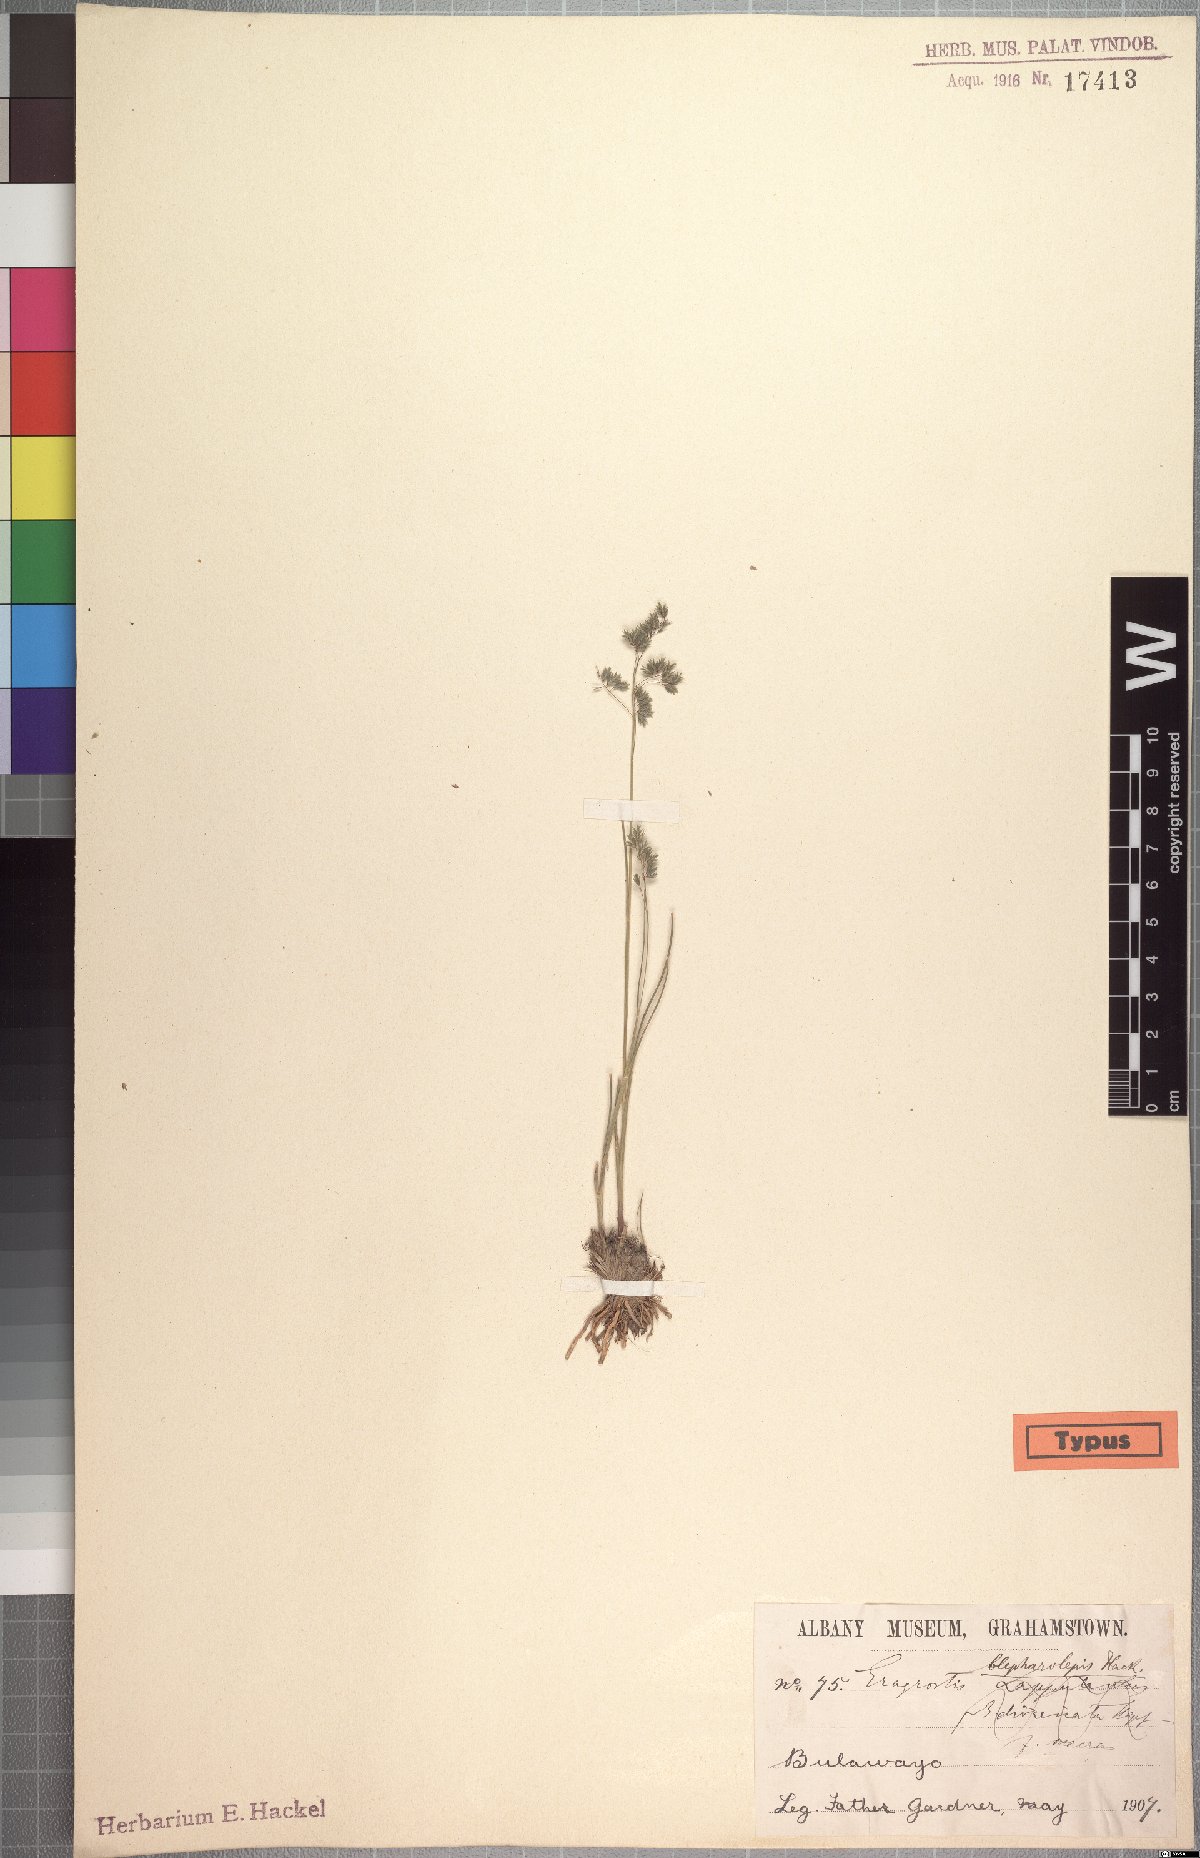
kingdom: Plantae
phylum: Tracheophyta
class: Liliopsida
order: Poales
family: Poaceae
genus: Eragrostis
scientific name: Eragrostis hispida
